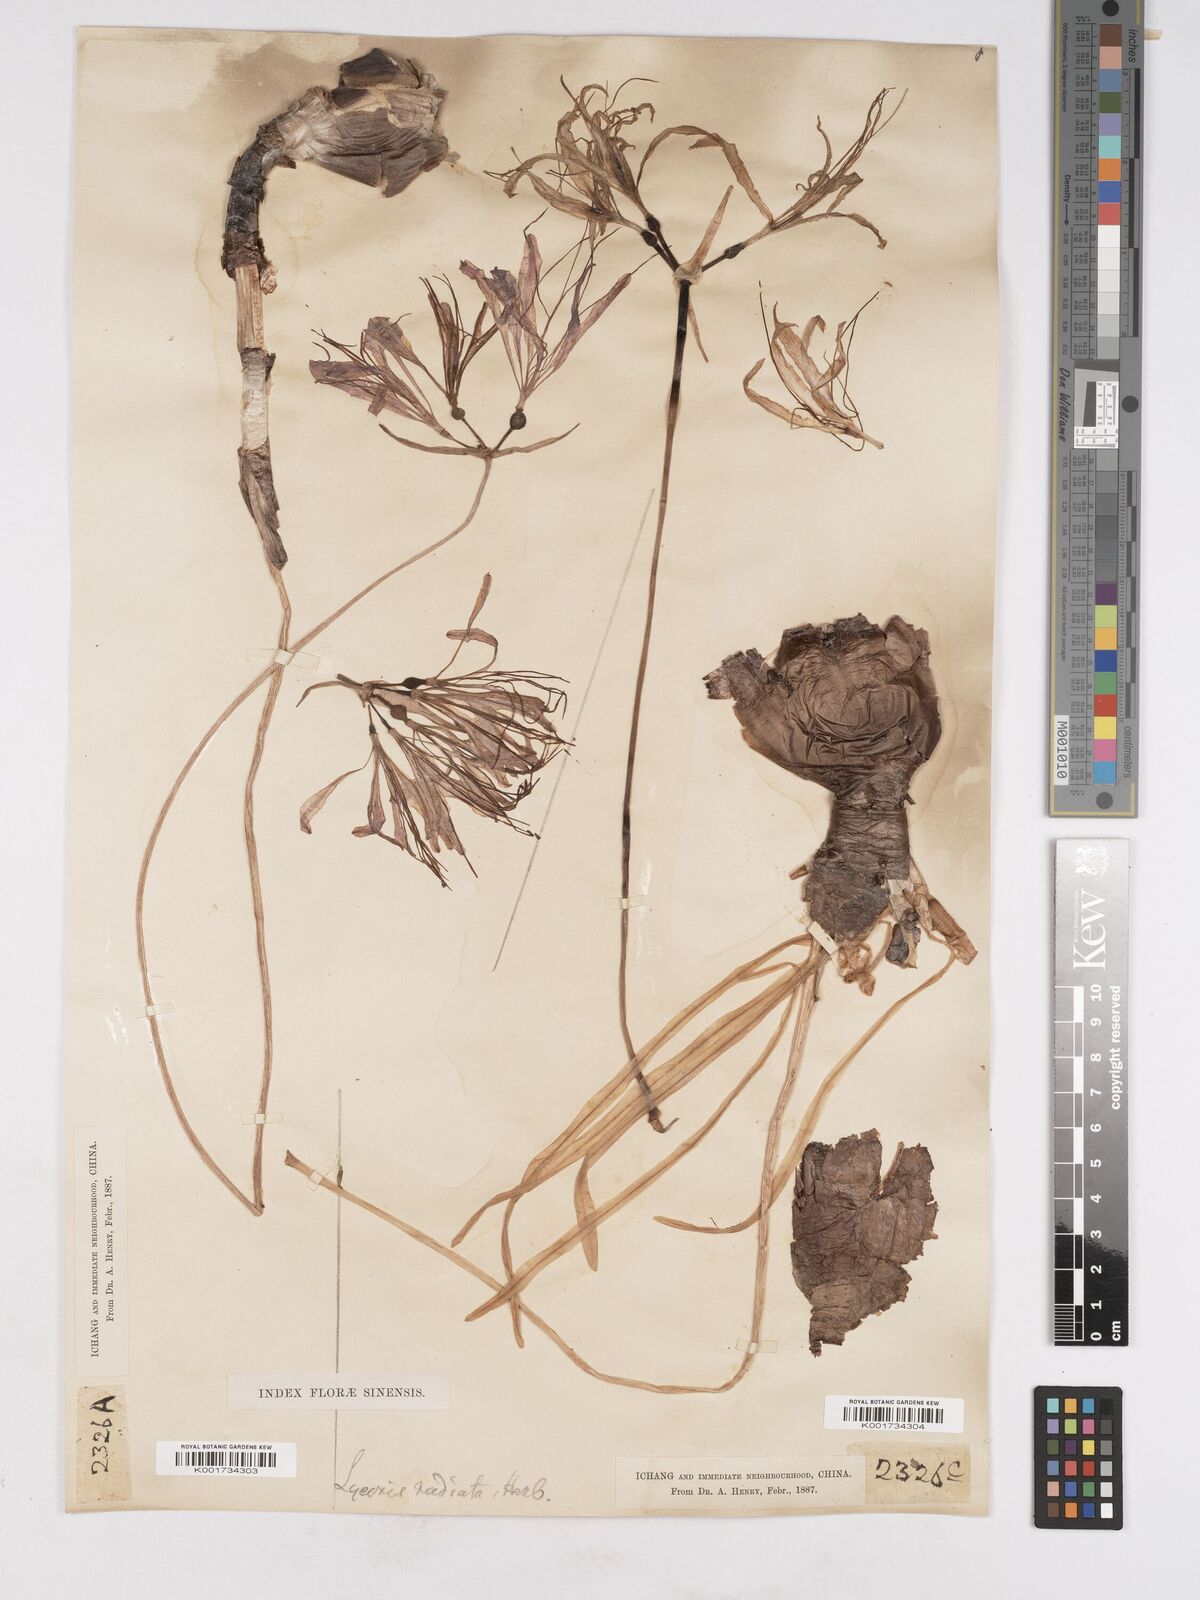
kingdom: Plantae
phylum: Tracheophyta
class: Liliopsida
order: Asparagales
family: Amaryllidaceae
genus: Lycoris
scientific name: Lycoris radiata
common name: Red spider lily
